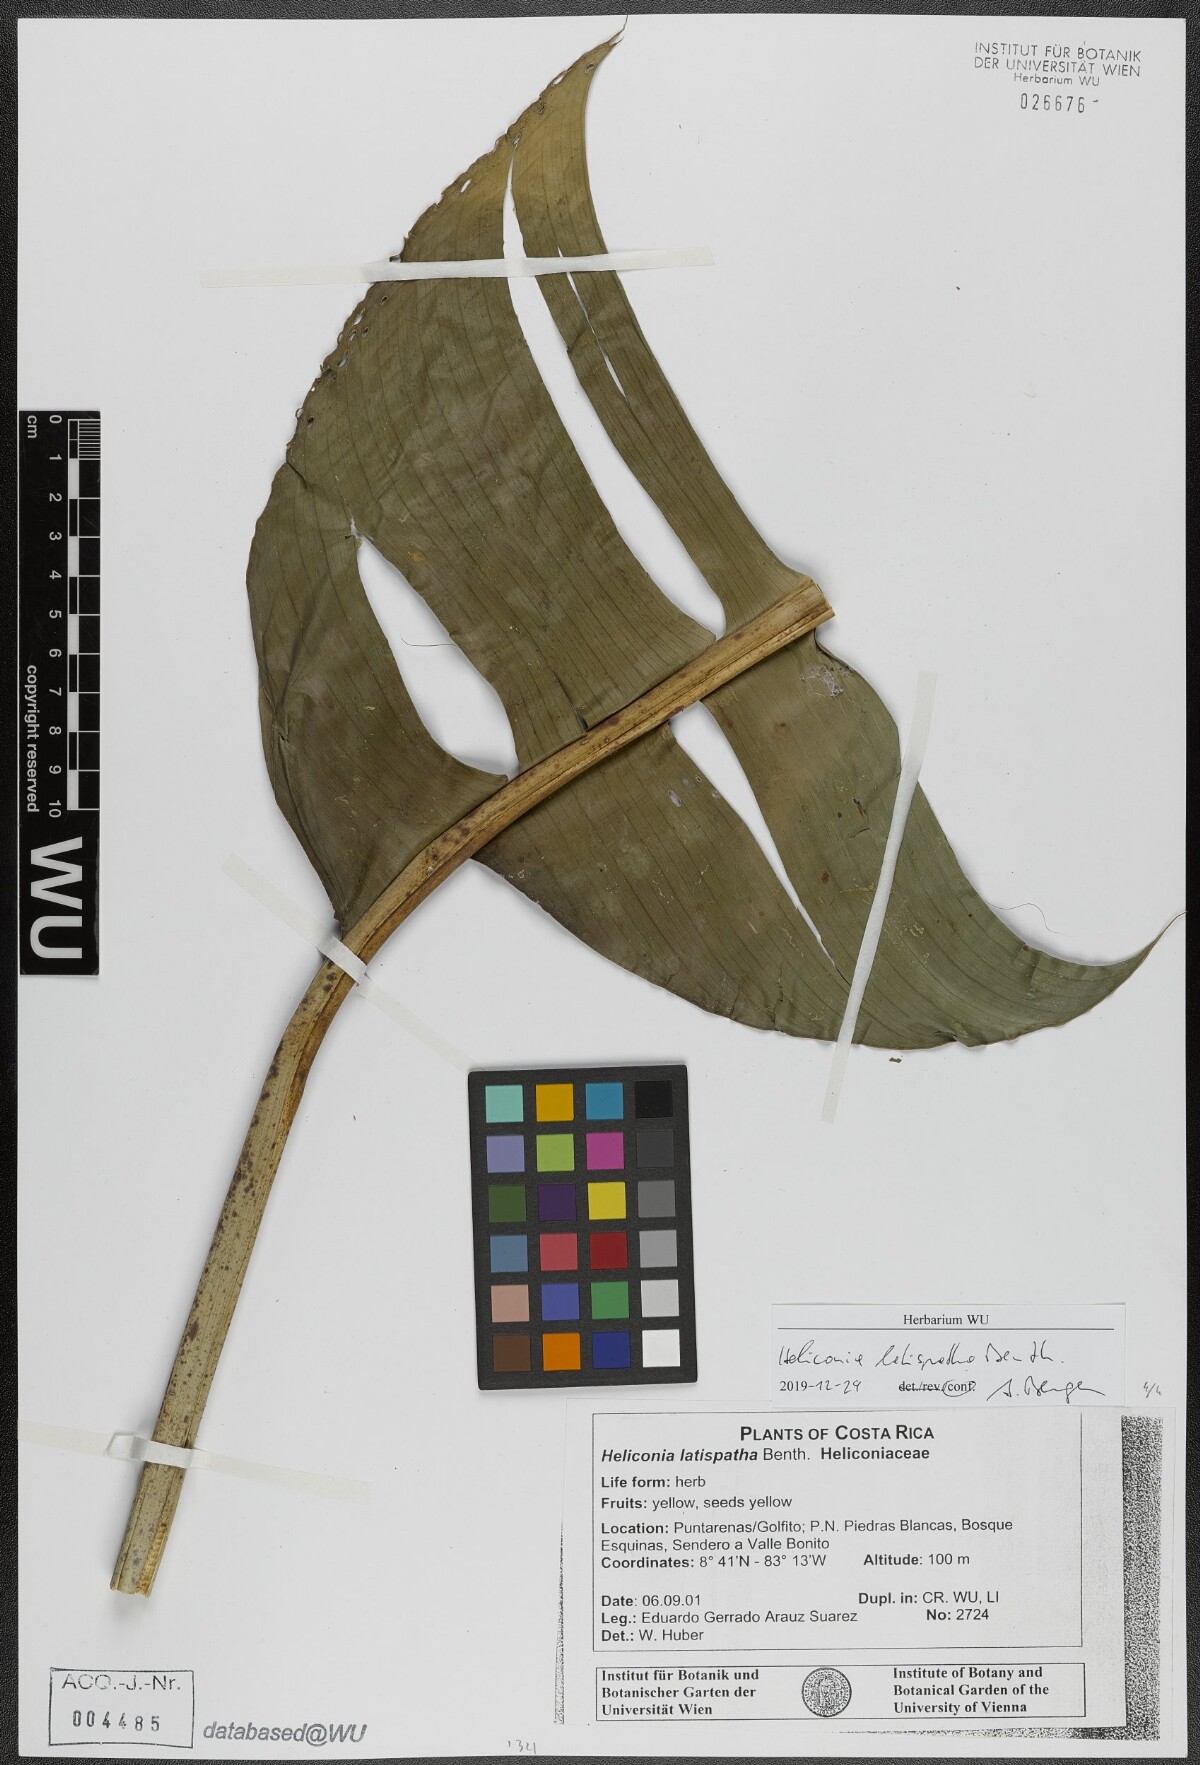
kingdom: Plantae
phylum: Tracheophyta
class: Liliopsida
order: Zingiberales
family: Heliconiaceae
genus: Heliconia
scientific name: Heliconia latispatha
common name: Expanded lobsterclaw
